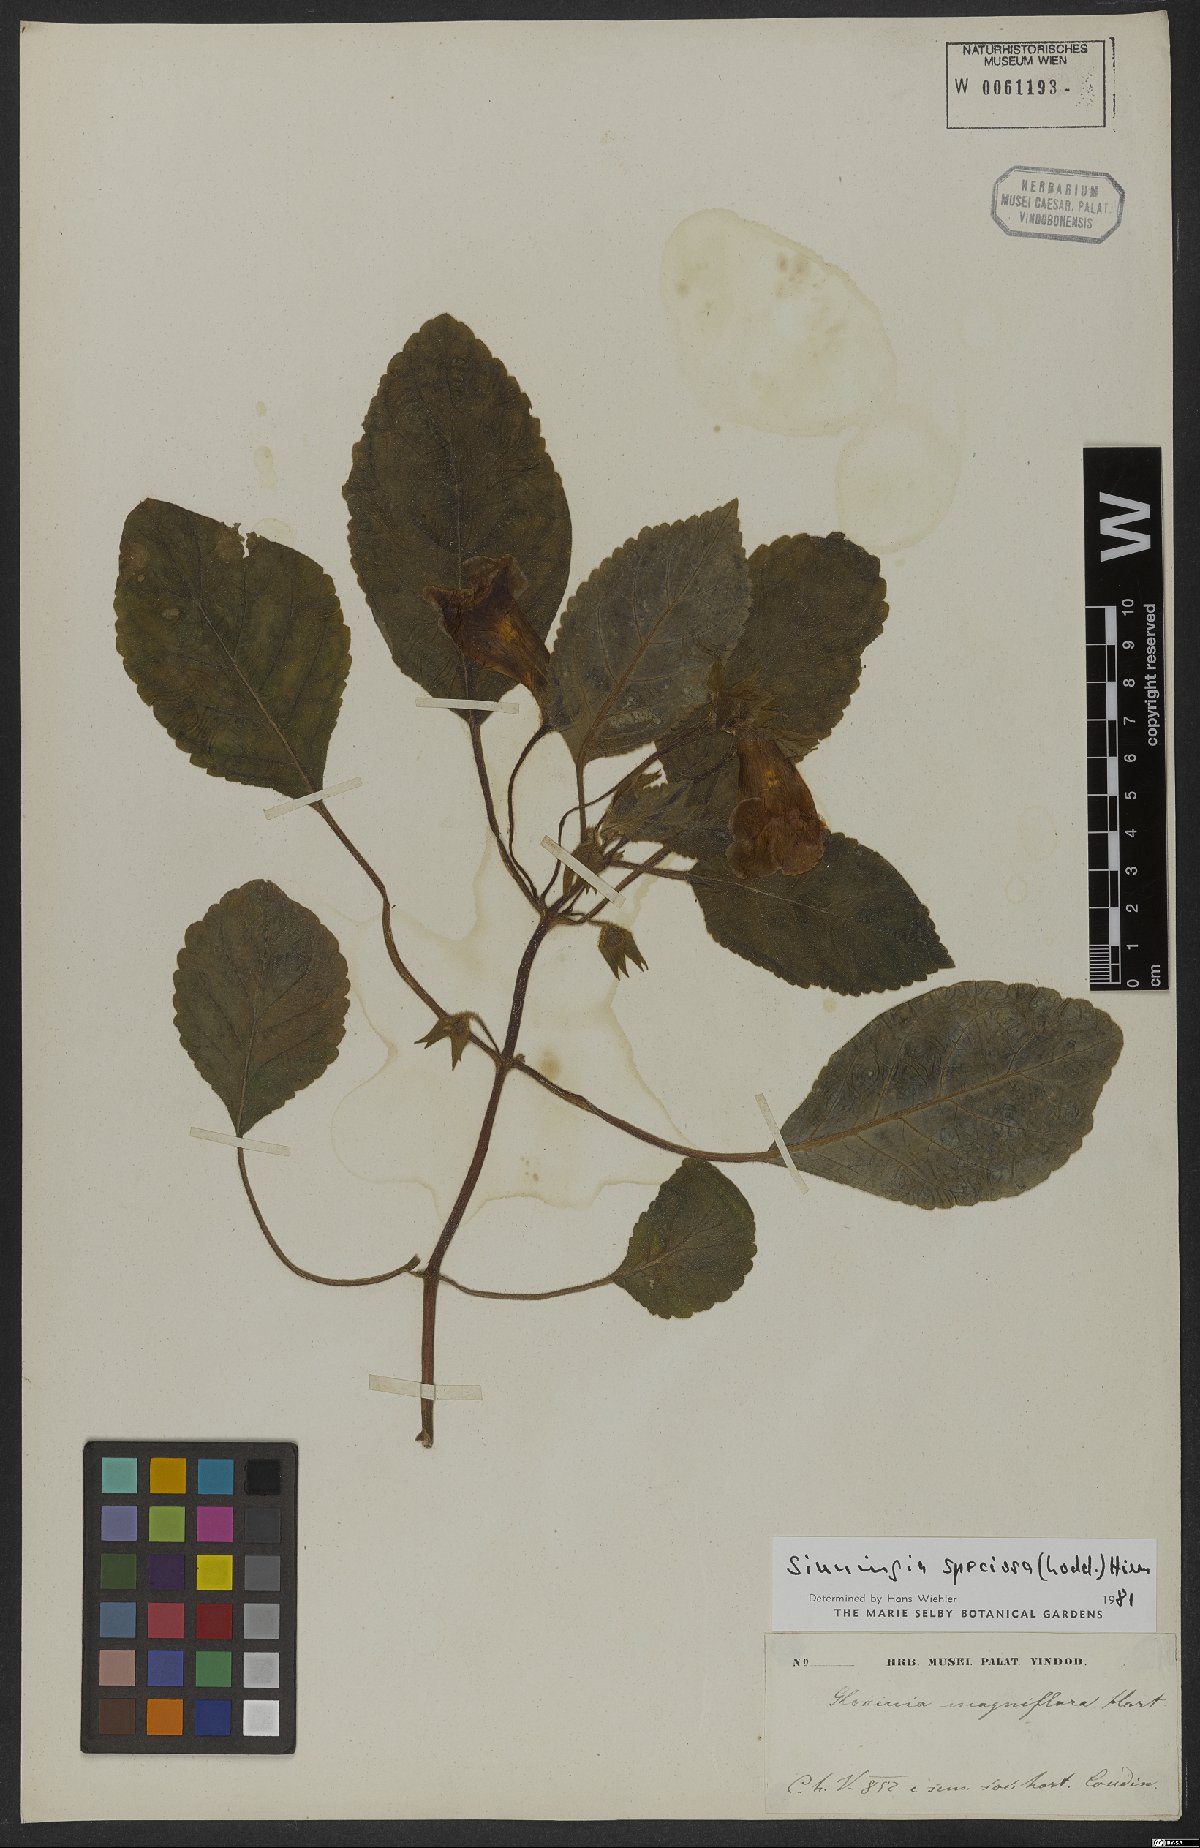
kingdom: Plantae
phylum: Tracheophyta
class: Magnoliopsida
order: Lamiales
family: Gesneriaceae
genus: Sinningia
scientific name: Sinningia speciosa
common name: Brazilian gloxinia
